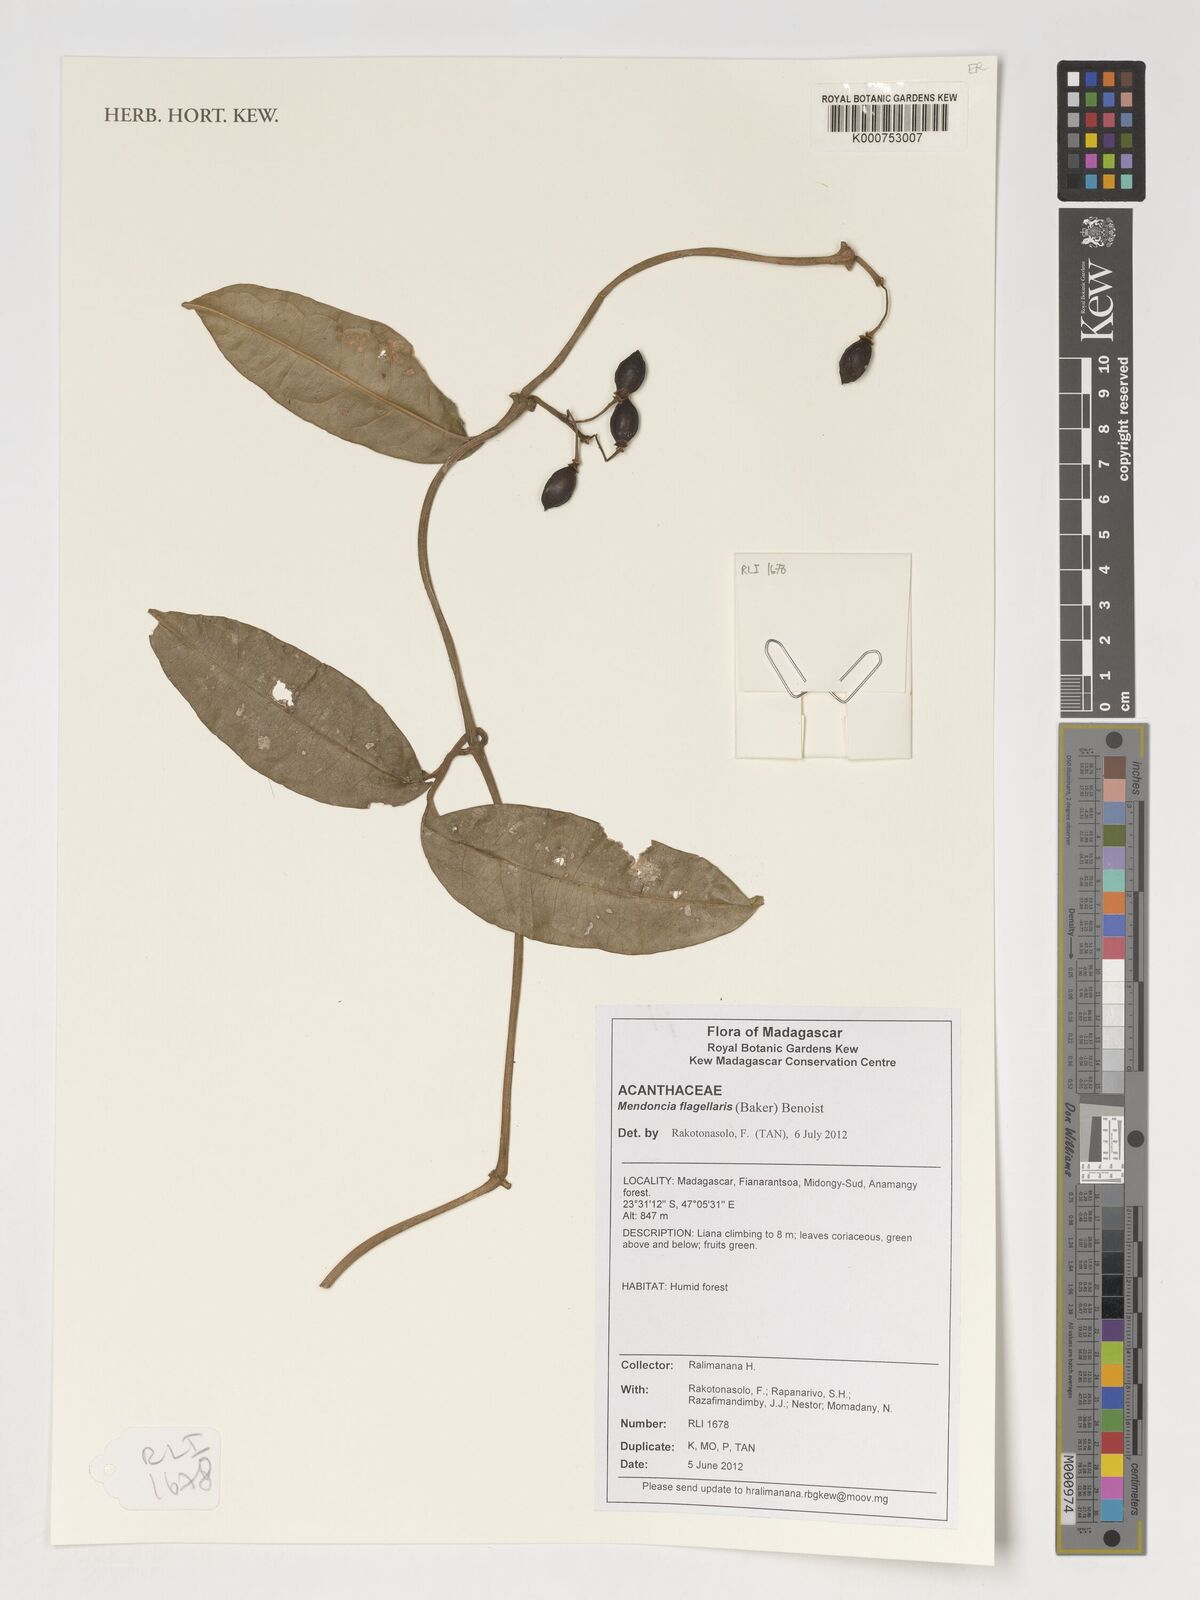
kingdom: Plantae
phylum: Tracheophyta
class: Magnoliopsida
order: Lamiales
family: Acanthaceae
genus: Mendoncia
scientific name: Mendoncia flagellaris
